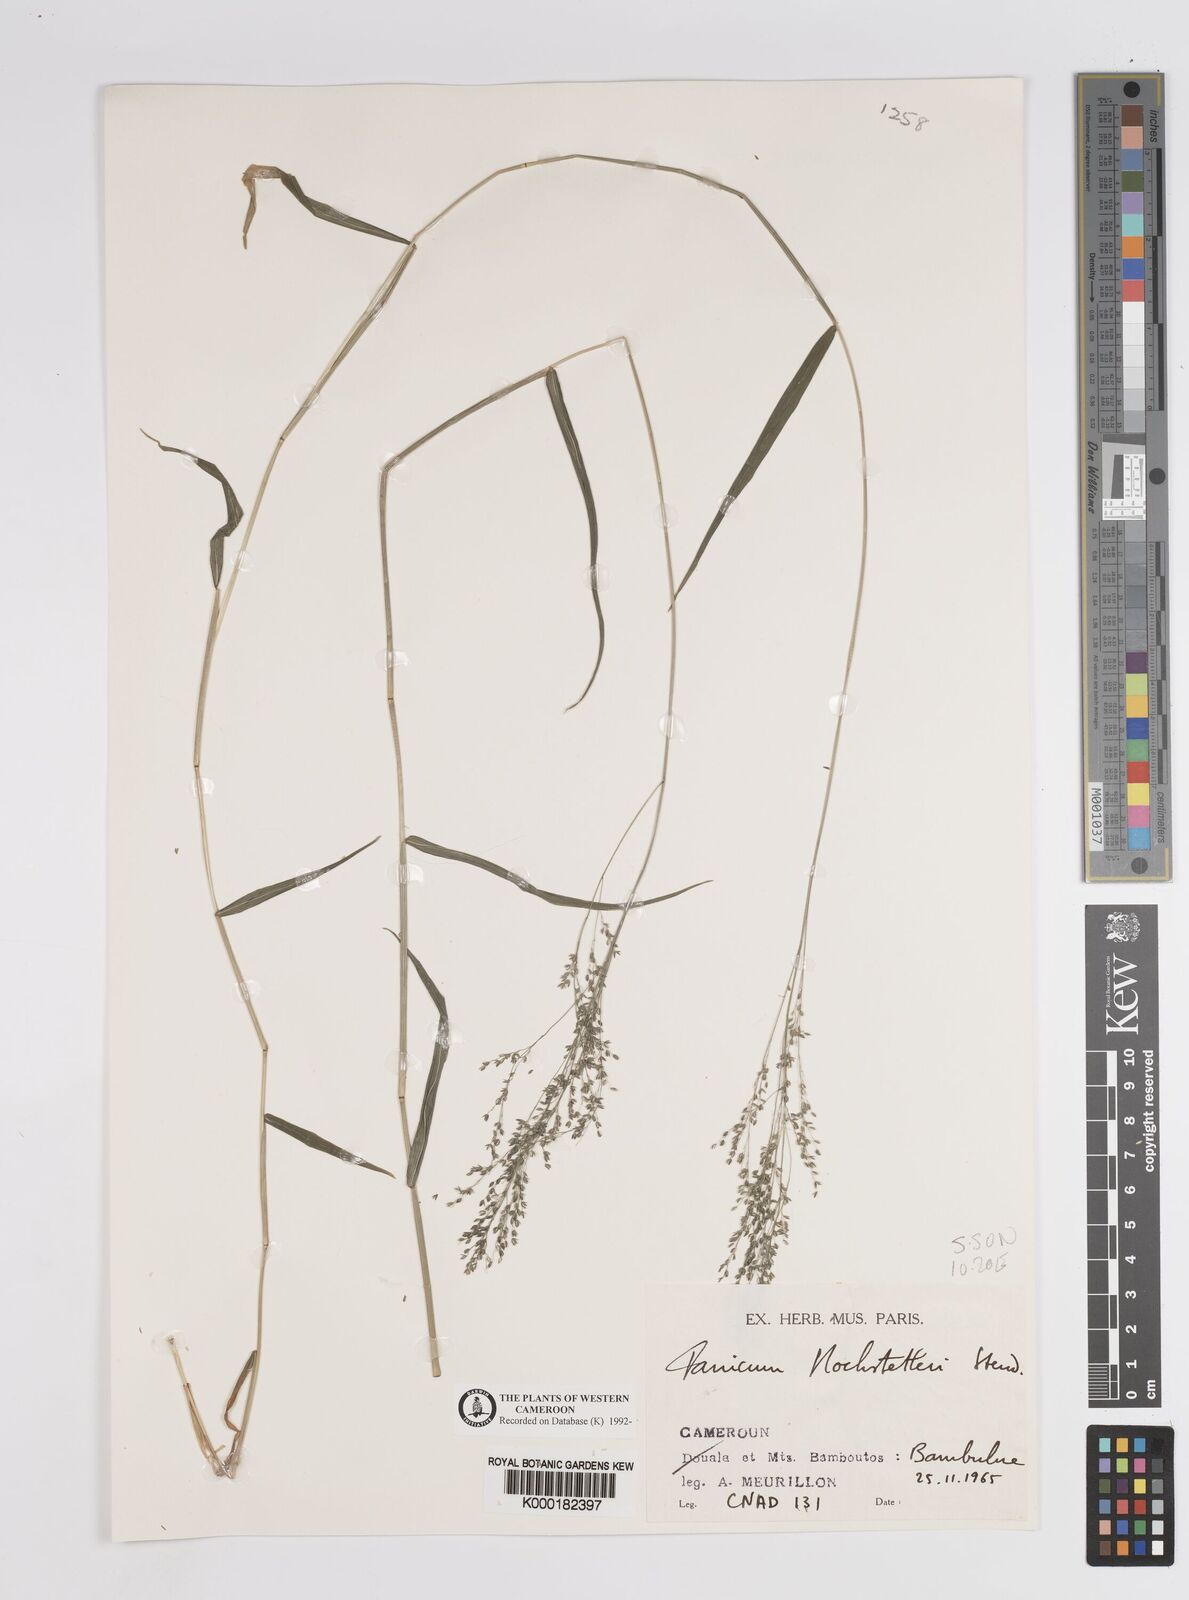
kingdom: Plantae
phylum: Tracheophyta
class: Liliopsida
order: Poales
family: Poaceae
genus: Panicum
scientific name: Panicum hochstetteri
